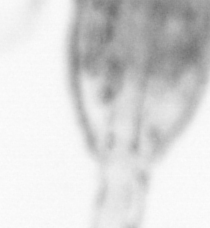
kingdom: Animalia
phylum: Arthropoda
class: Copepoda
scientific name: Copepoda
